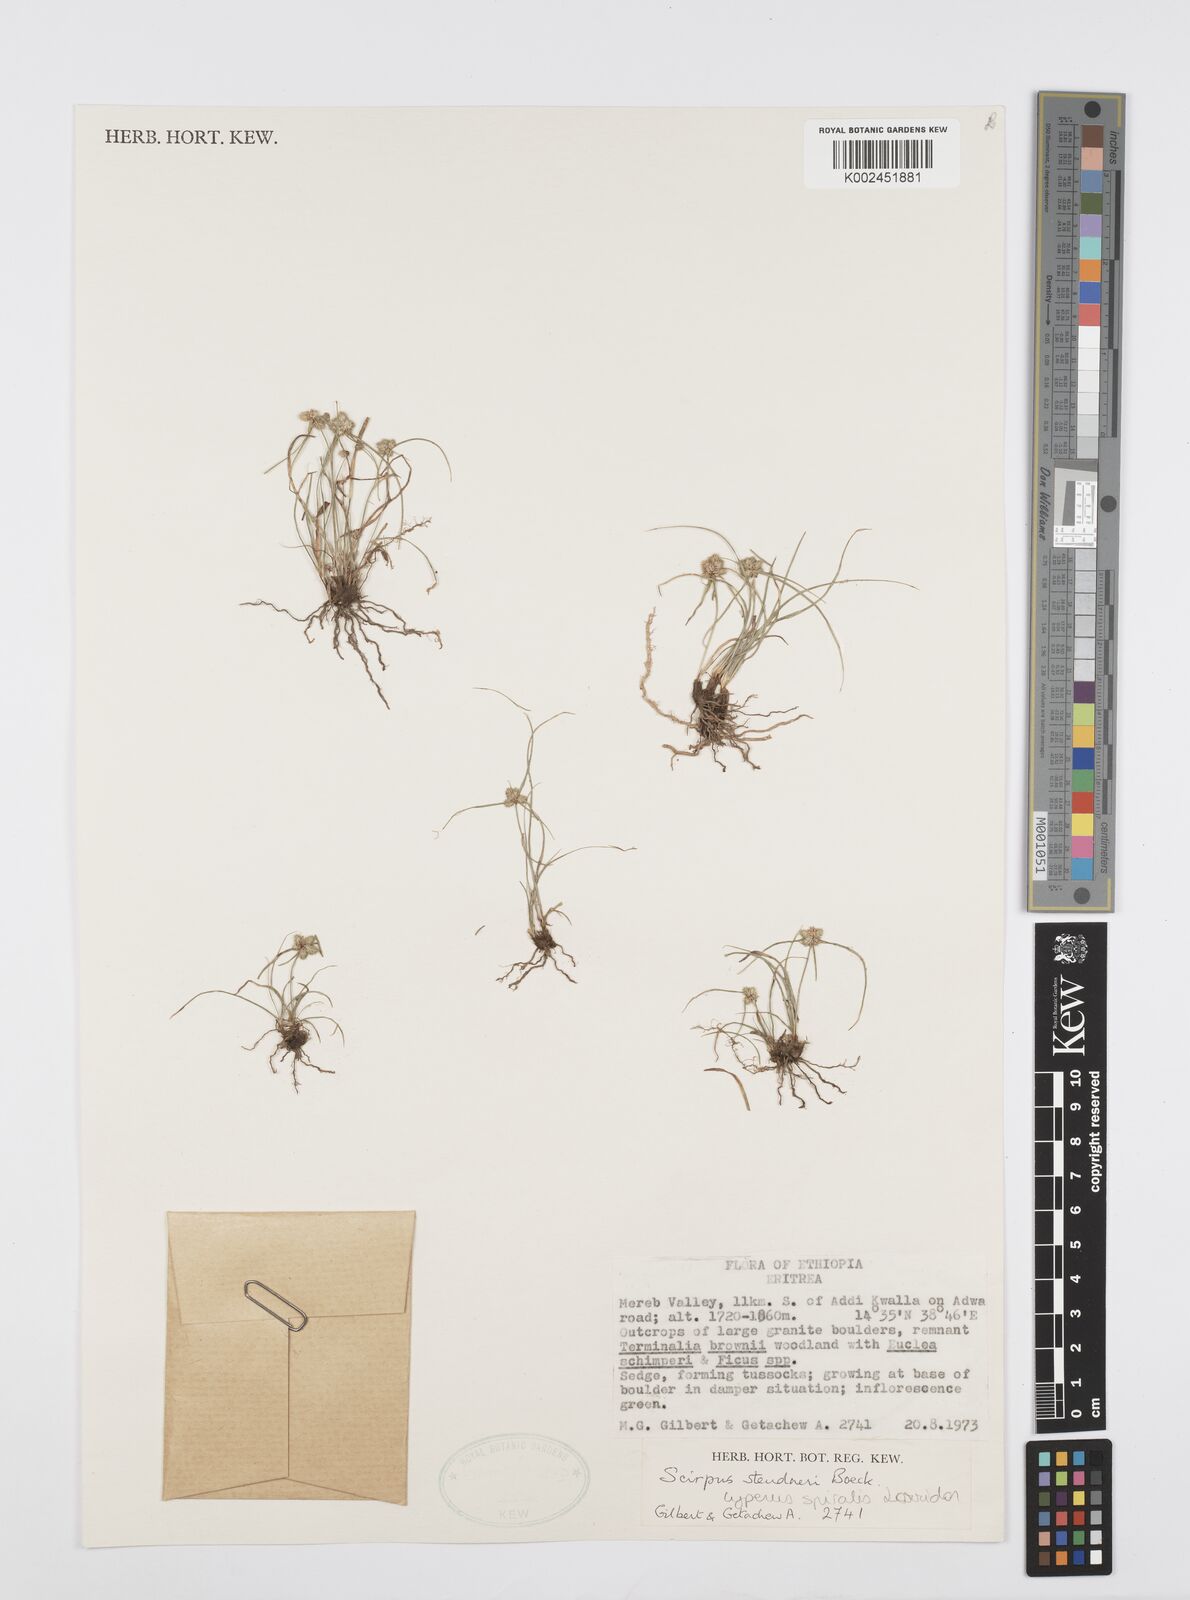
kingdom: Plantae
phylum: Tracheophyta
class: Liliopsida
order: Poales
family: Cyperaceae
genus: Cyperus
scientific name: Cyperus microcephalus
